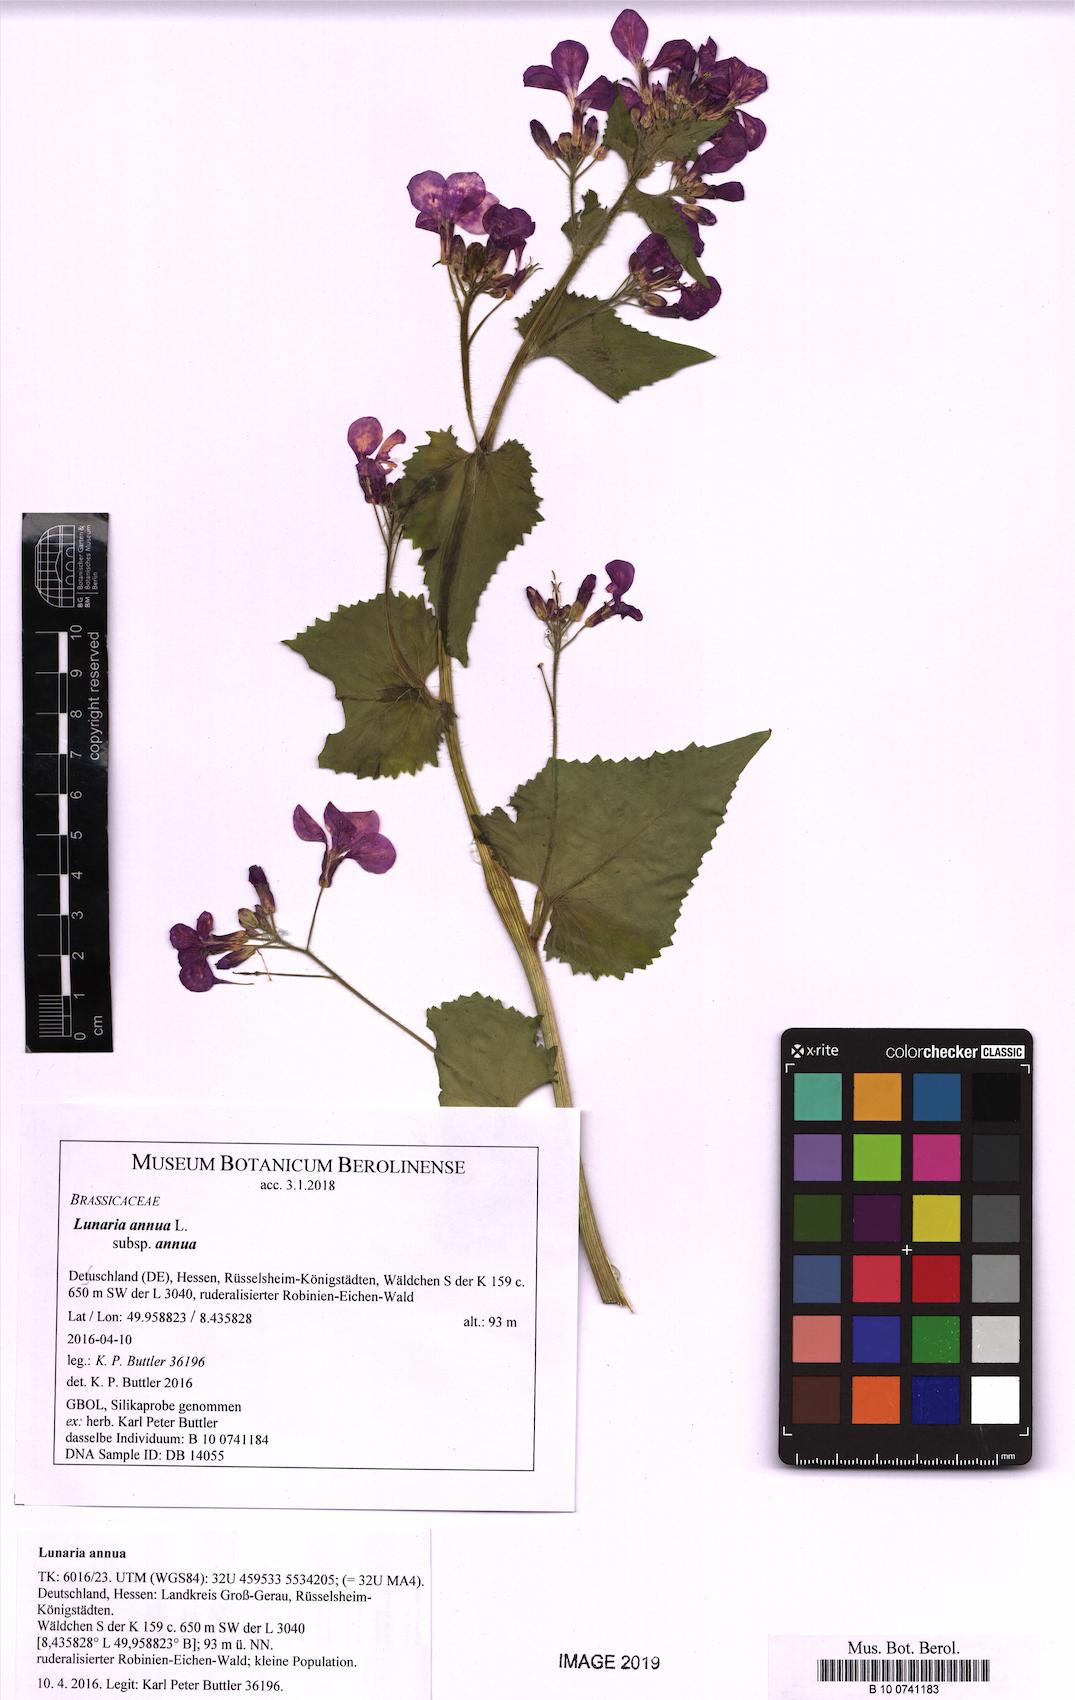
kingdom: Plantae
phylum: Tracheophyta
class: Magnoliopsida
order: Brassicales
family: Brassicaceae
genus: Lunaria
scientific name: Lunaria annua
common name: Honesty
